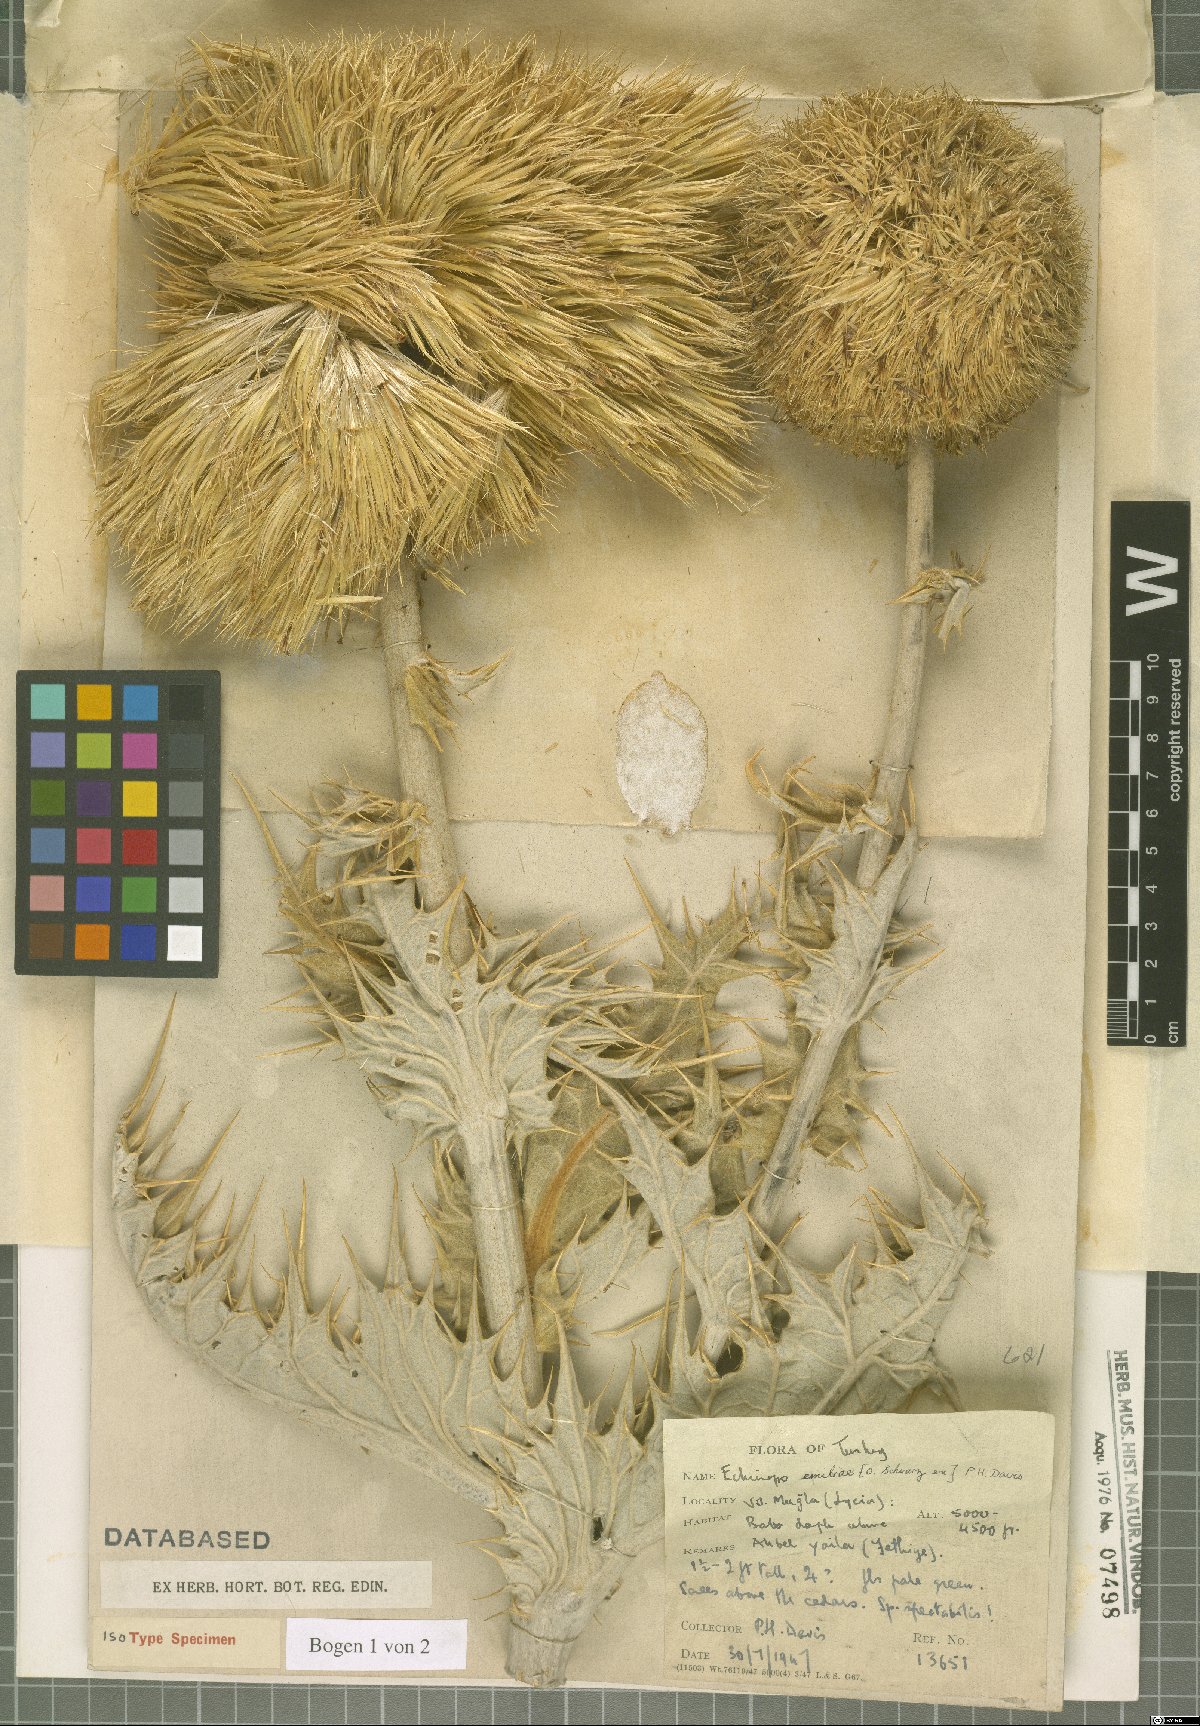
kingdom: Plantae
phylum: Tracheophyta
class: Magnoliopsida
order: Asterales
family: Asteraceae
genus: Echinops
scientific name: Echinops emiliae
